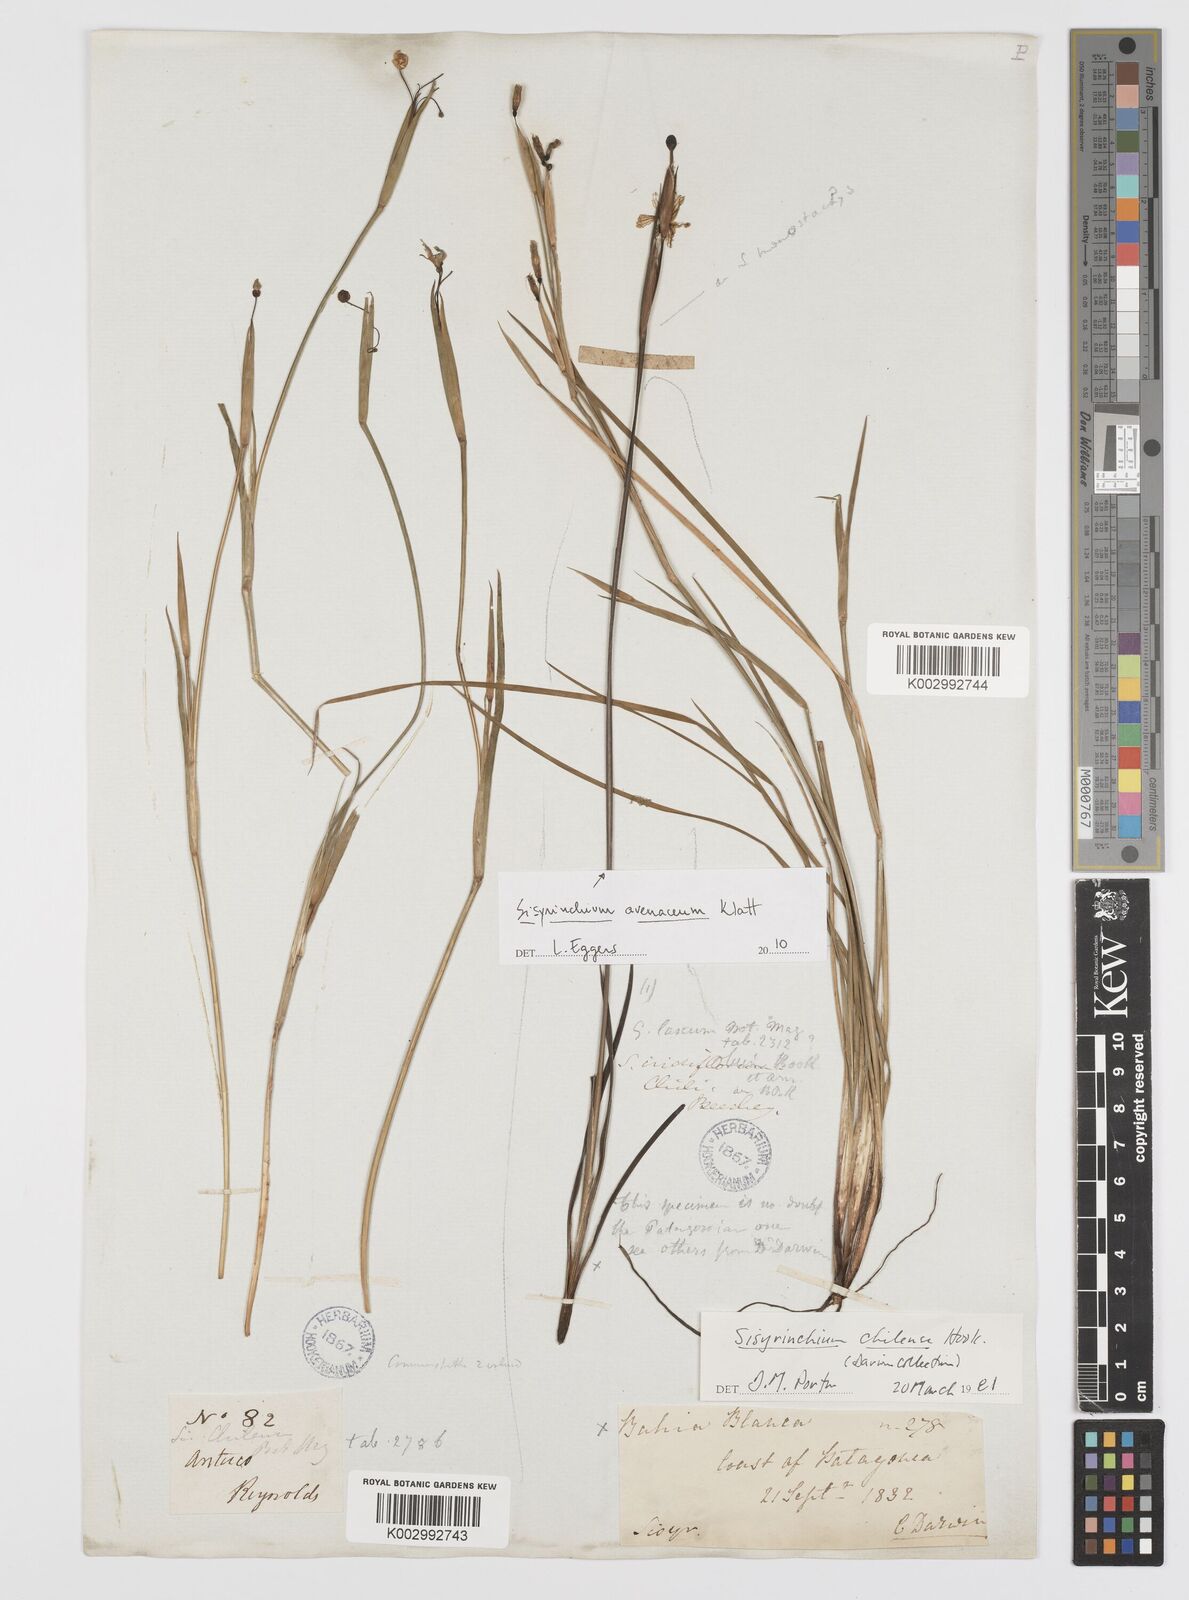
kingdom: Plantae
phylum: Tracheophyta
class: Liliopsida
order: Asparagales
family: Iridaceae
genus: Sisyrinchium
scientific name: Sisyrinchium chilense
